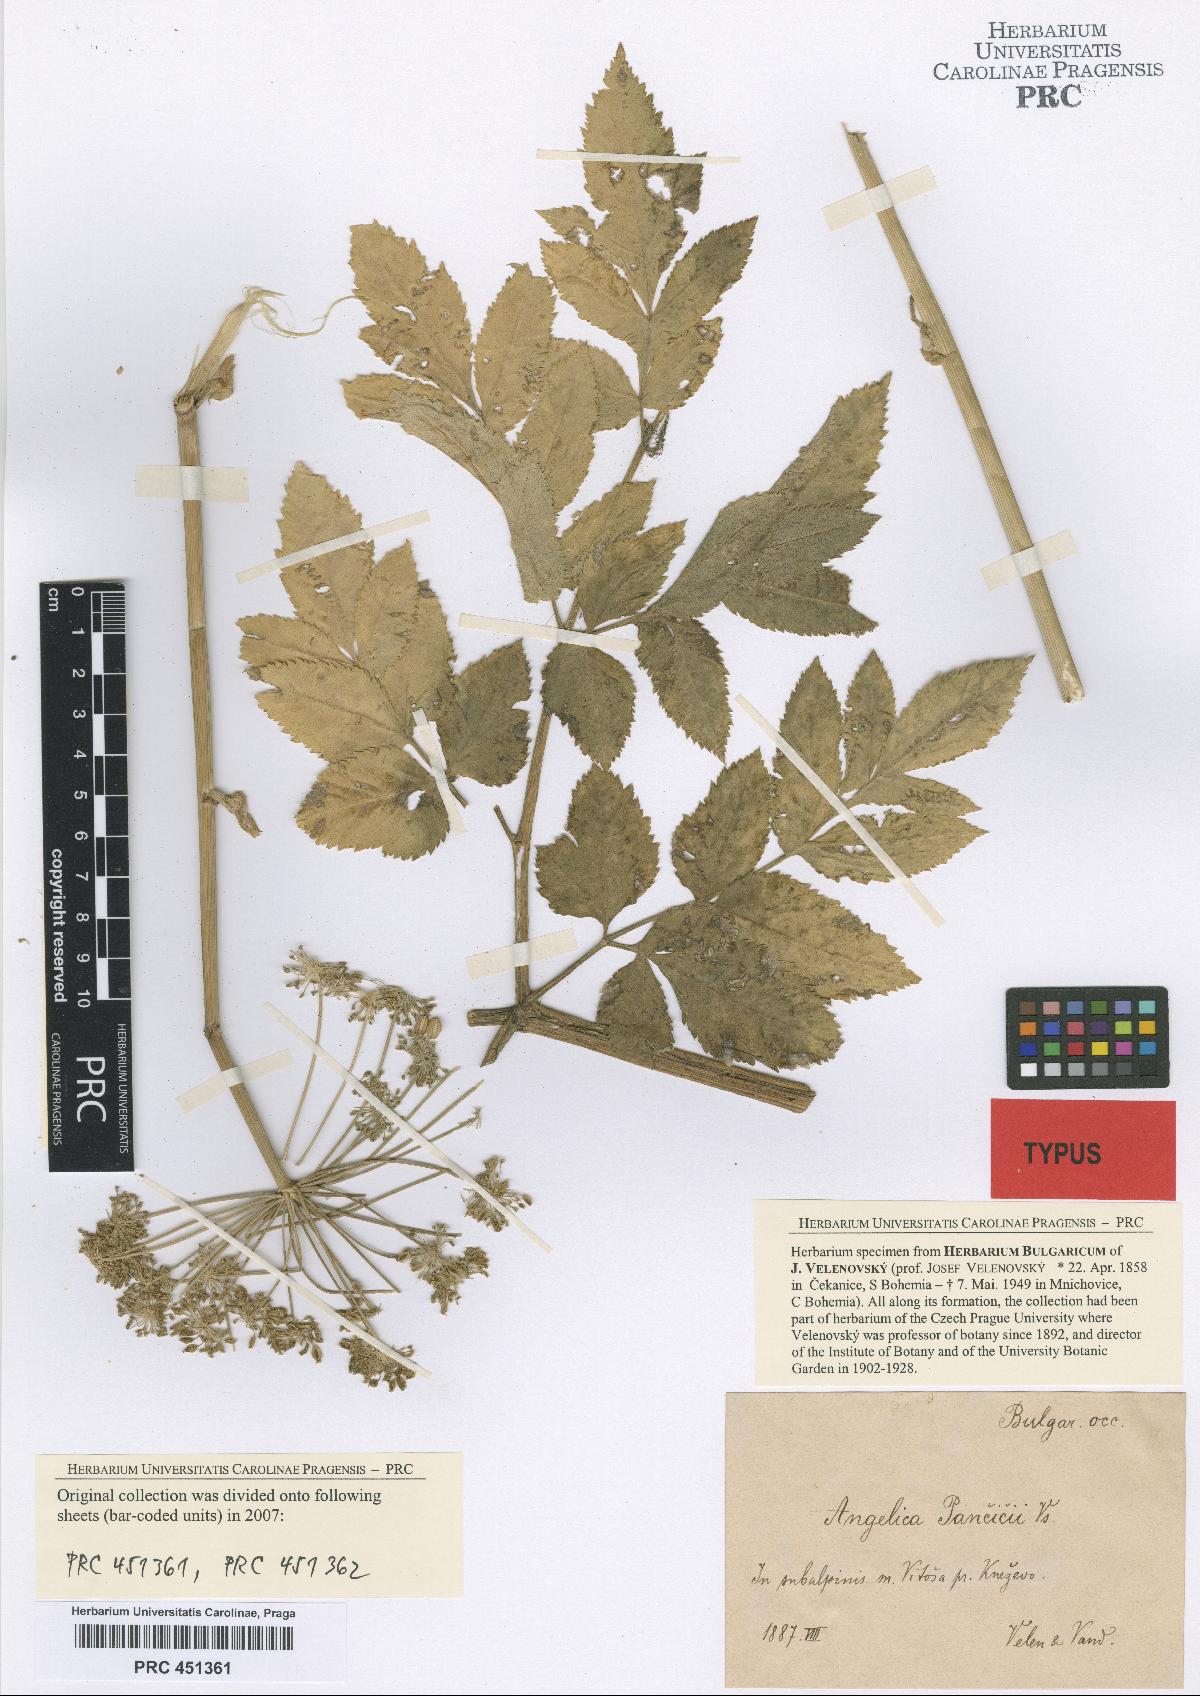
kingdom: Plantae
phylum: Tracheophyta
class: Magnoliopsida
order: Apiales
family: Apiaceae
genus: Ostericum
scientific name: Ostericum palustre
